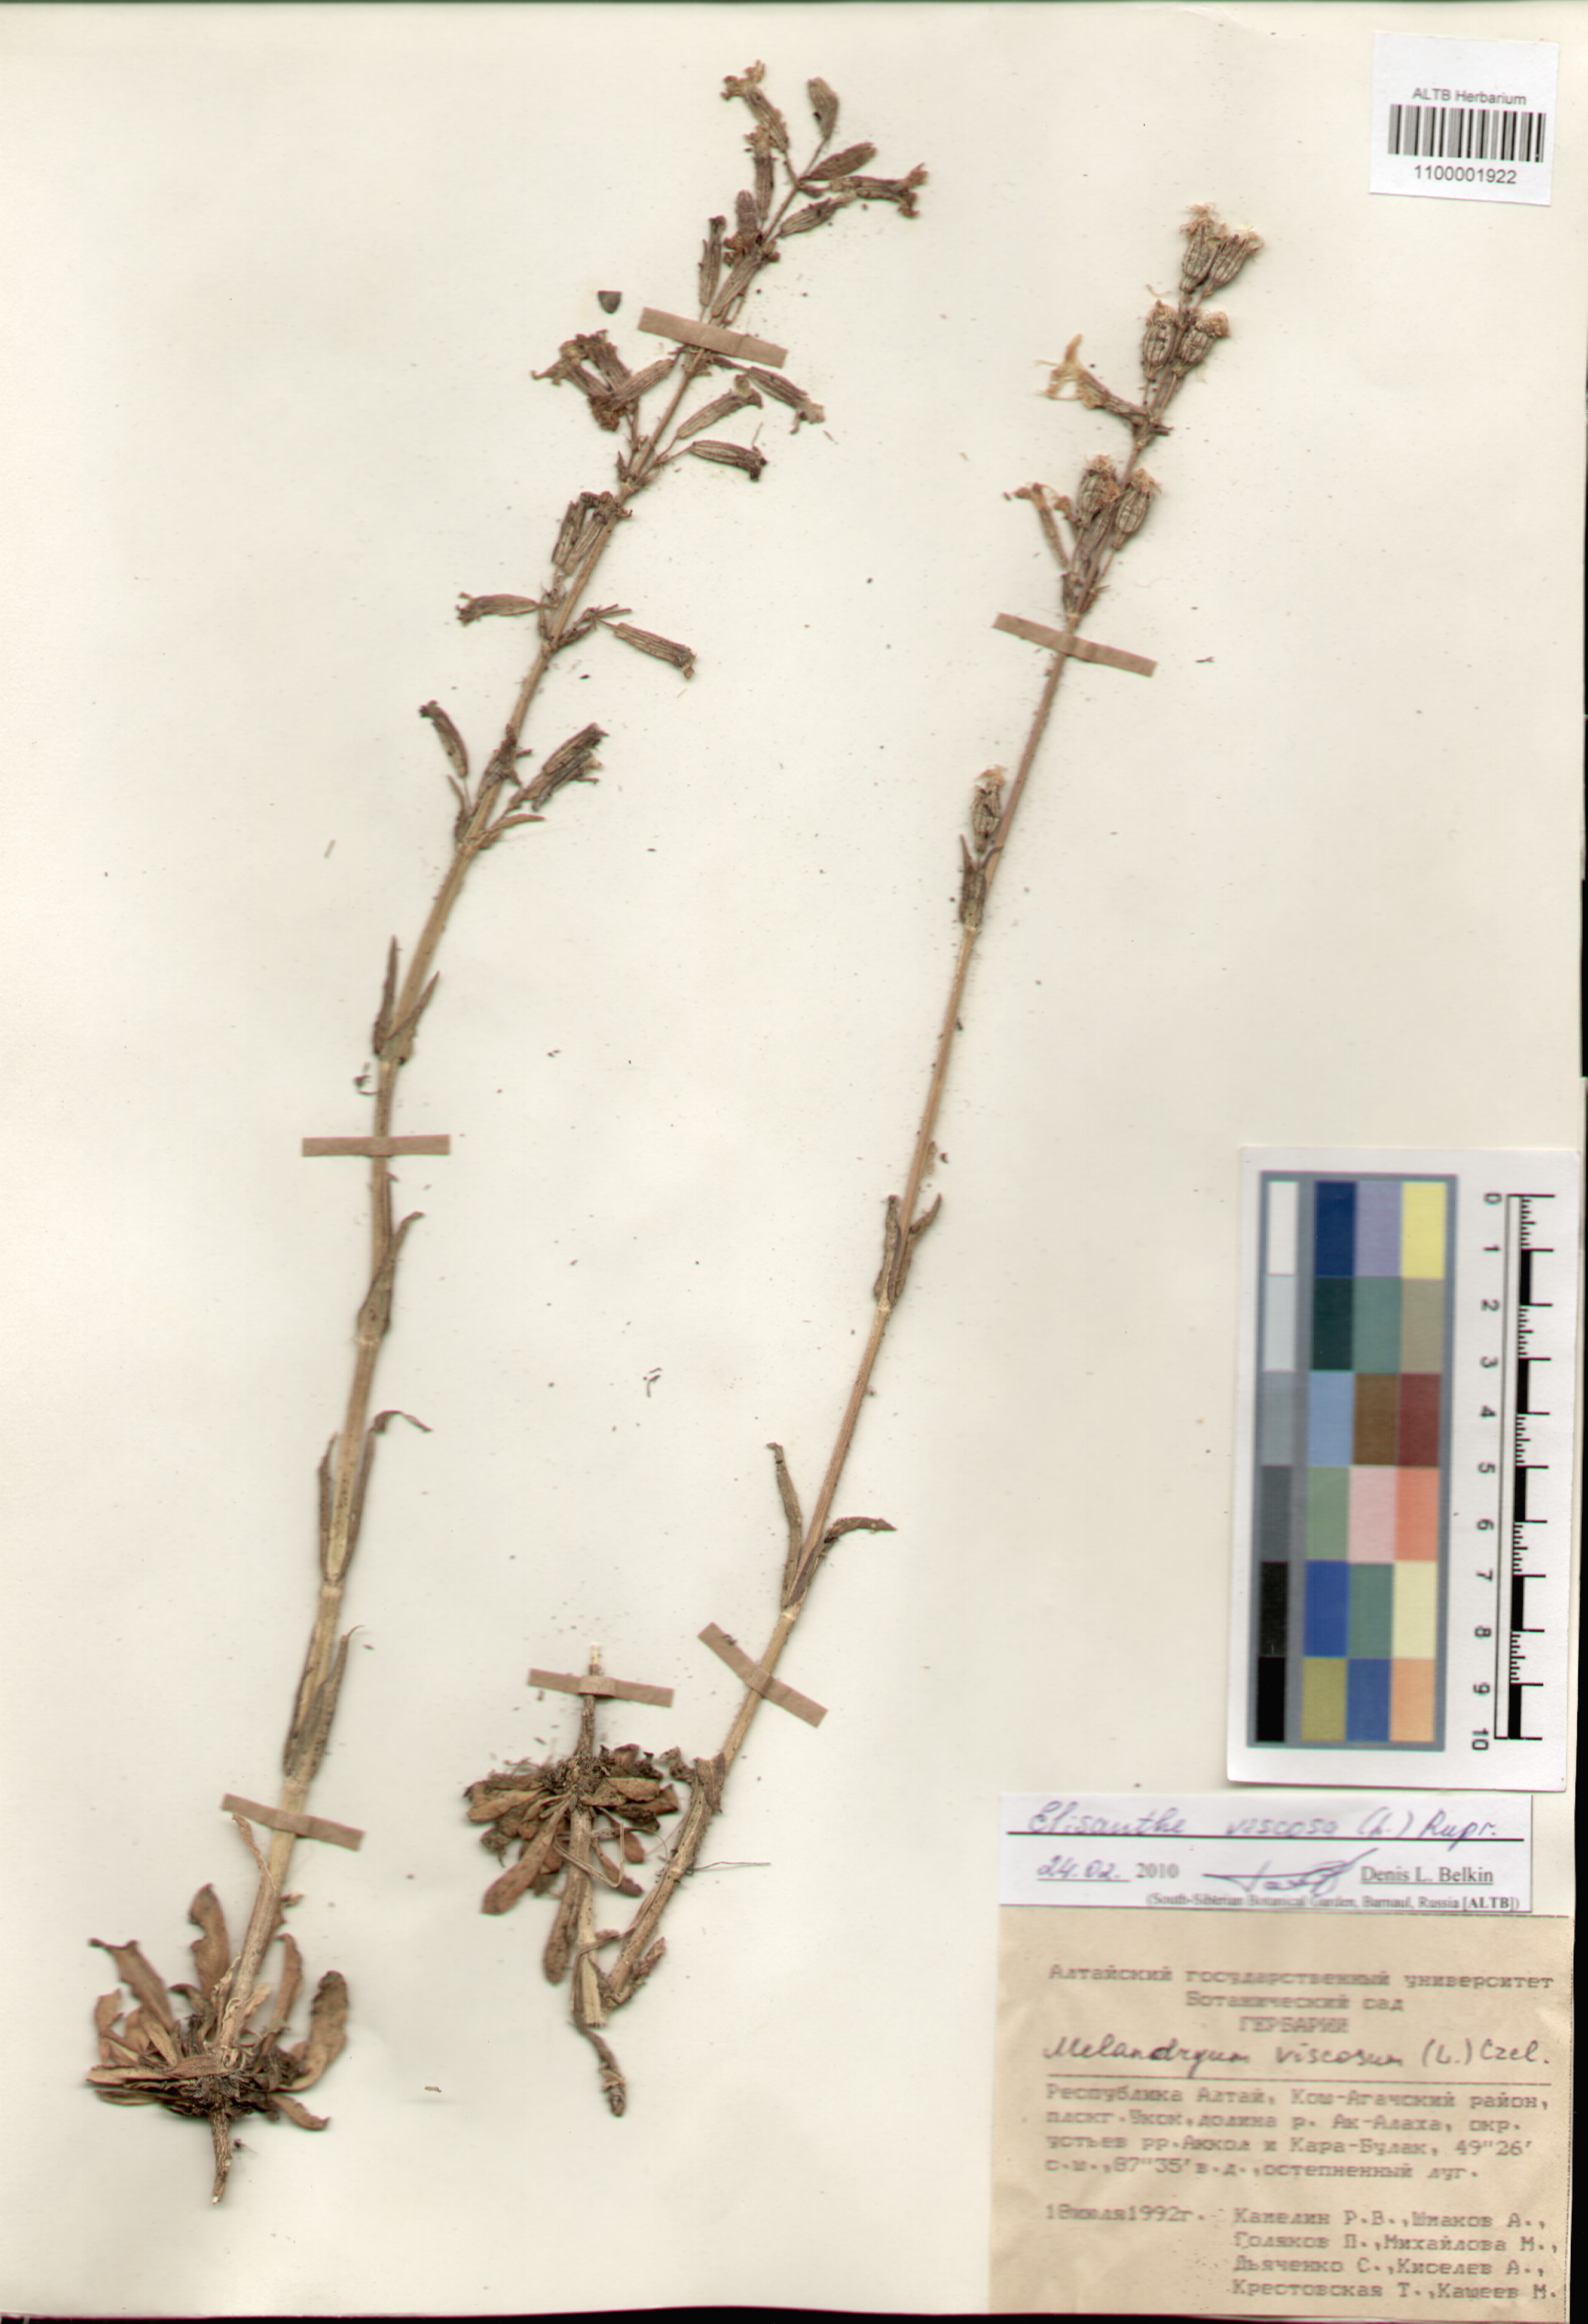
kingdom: Plantae
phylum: Tracheophyta
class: Magnoliopsida
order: Caryophyllales
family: Caryophyllaceae
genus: Silene
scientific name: Silene viscosa
